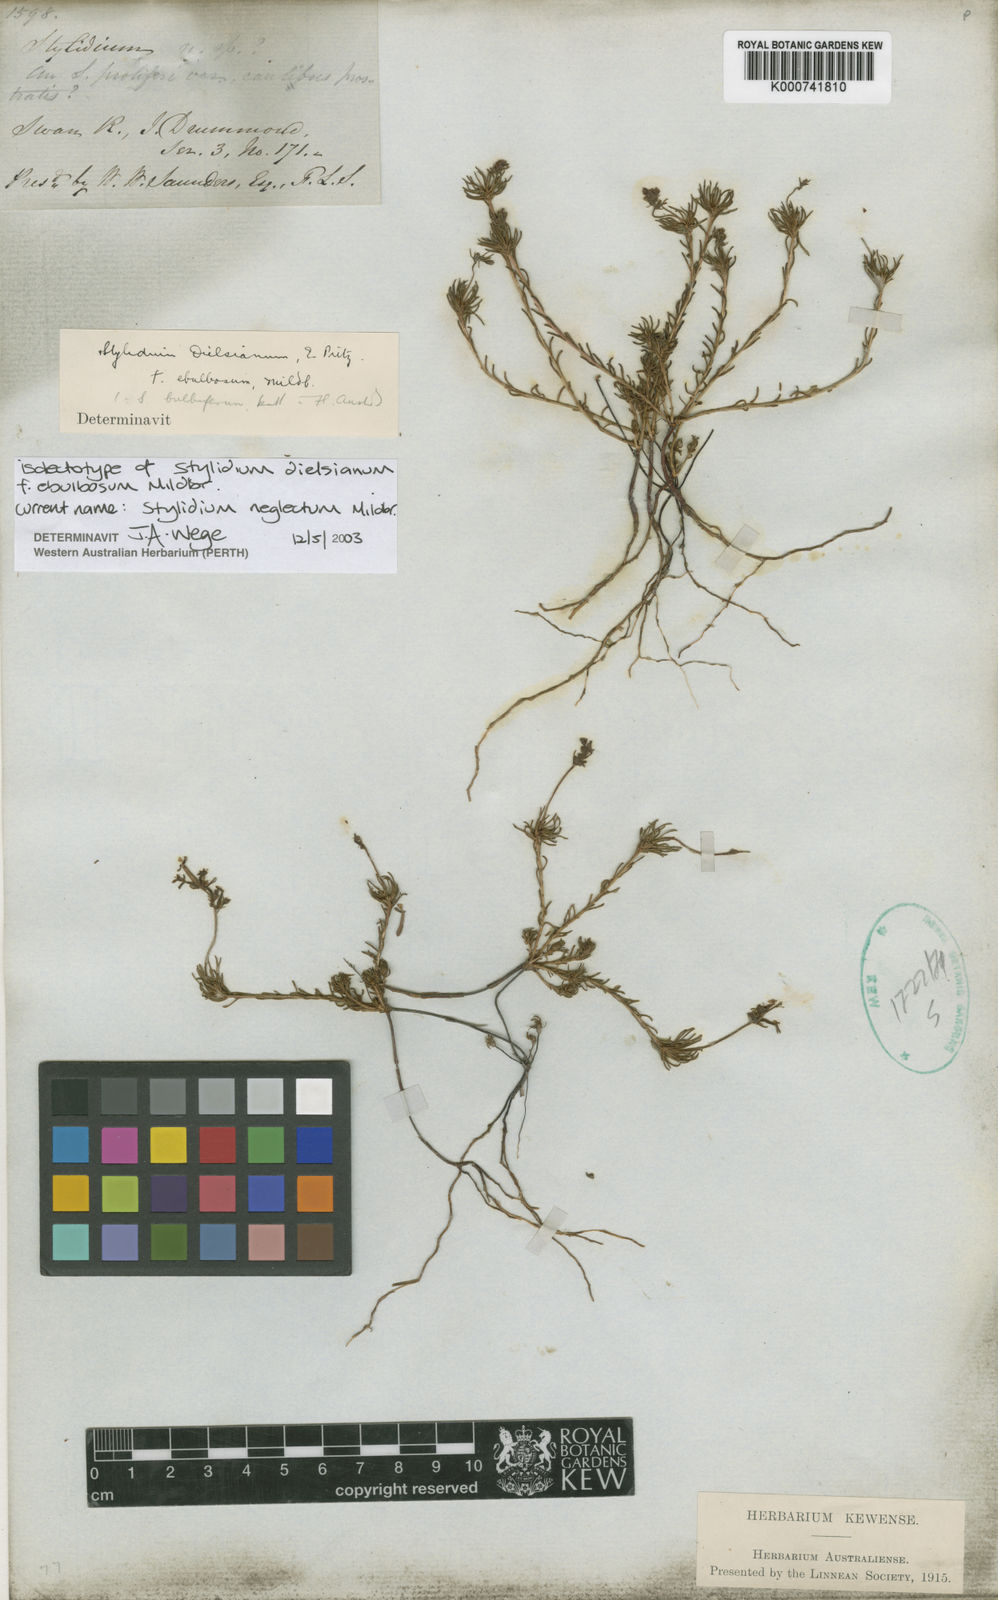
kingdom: Plantae
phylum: Tracheophyta
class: Magnoliopsida
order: Asterales
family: Stylidiaceae
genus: Stylidium
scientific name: Stylidium neglectum
